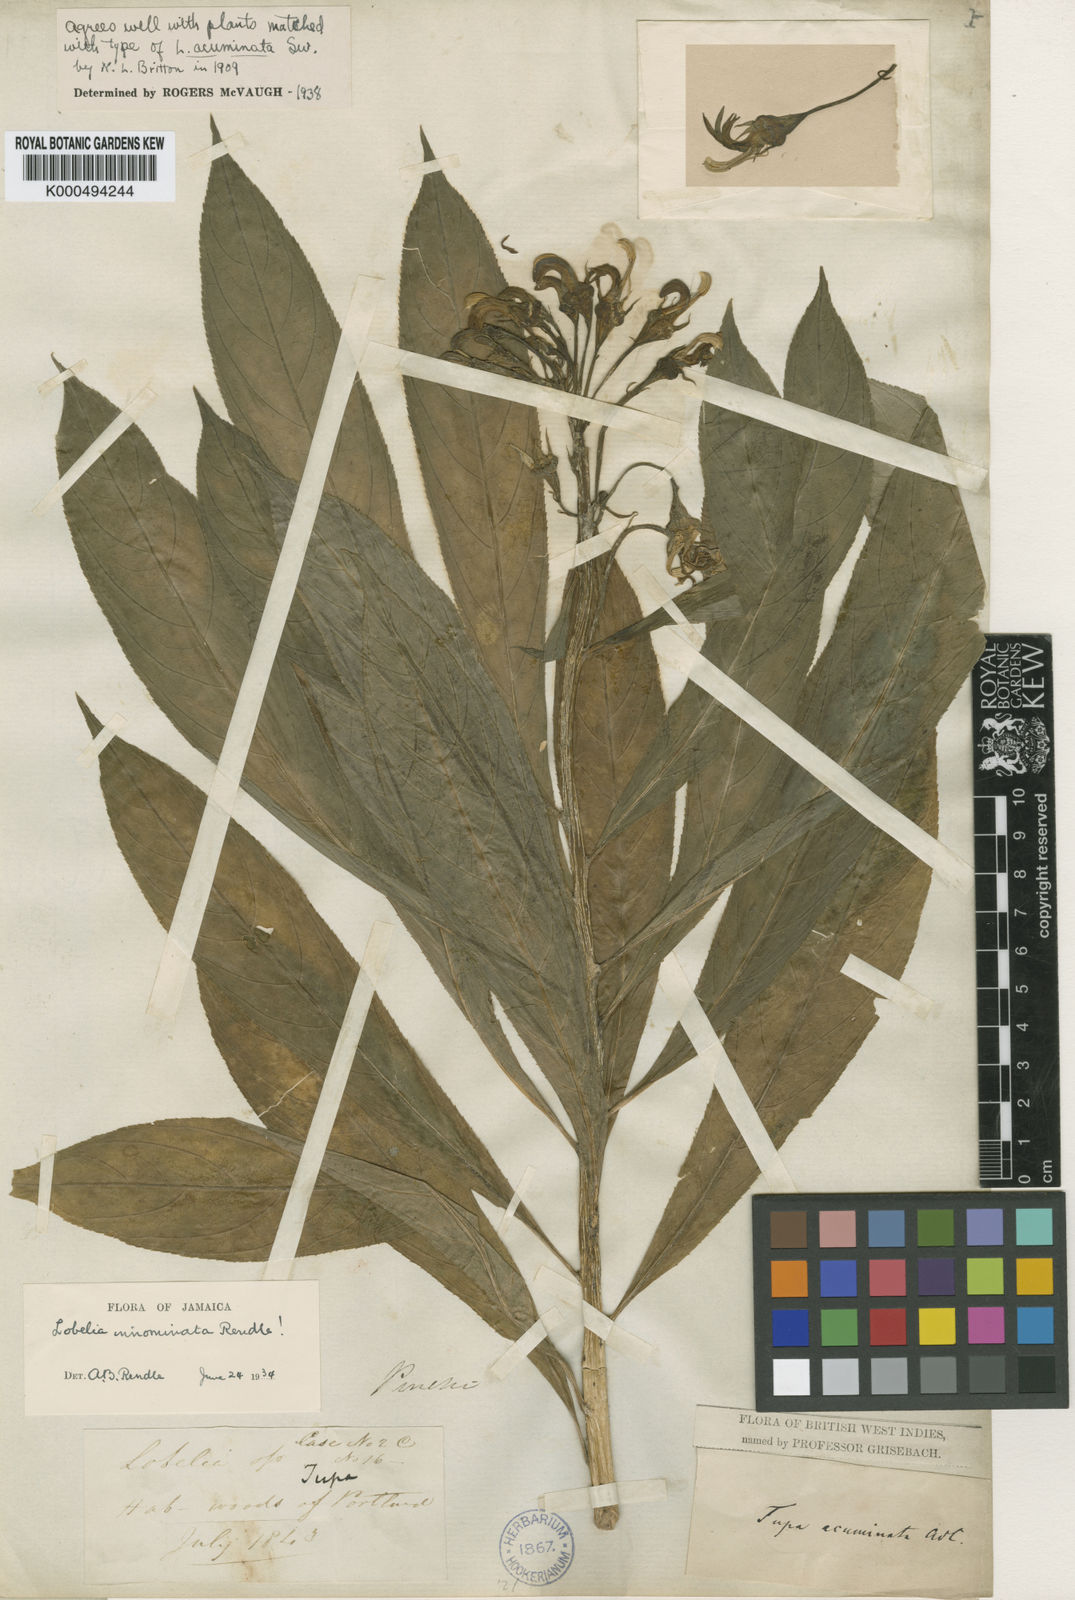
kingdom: Plantae
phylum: Tracheophyta
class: Magnoliopsida
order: Asterales
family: Campanulaceae
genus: Lobelia
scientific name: Lobelia innominata
